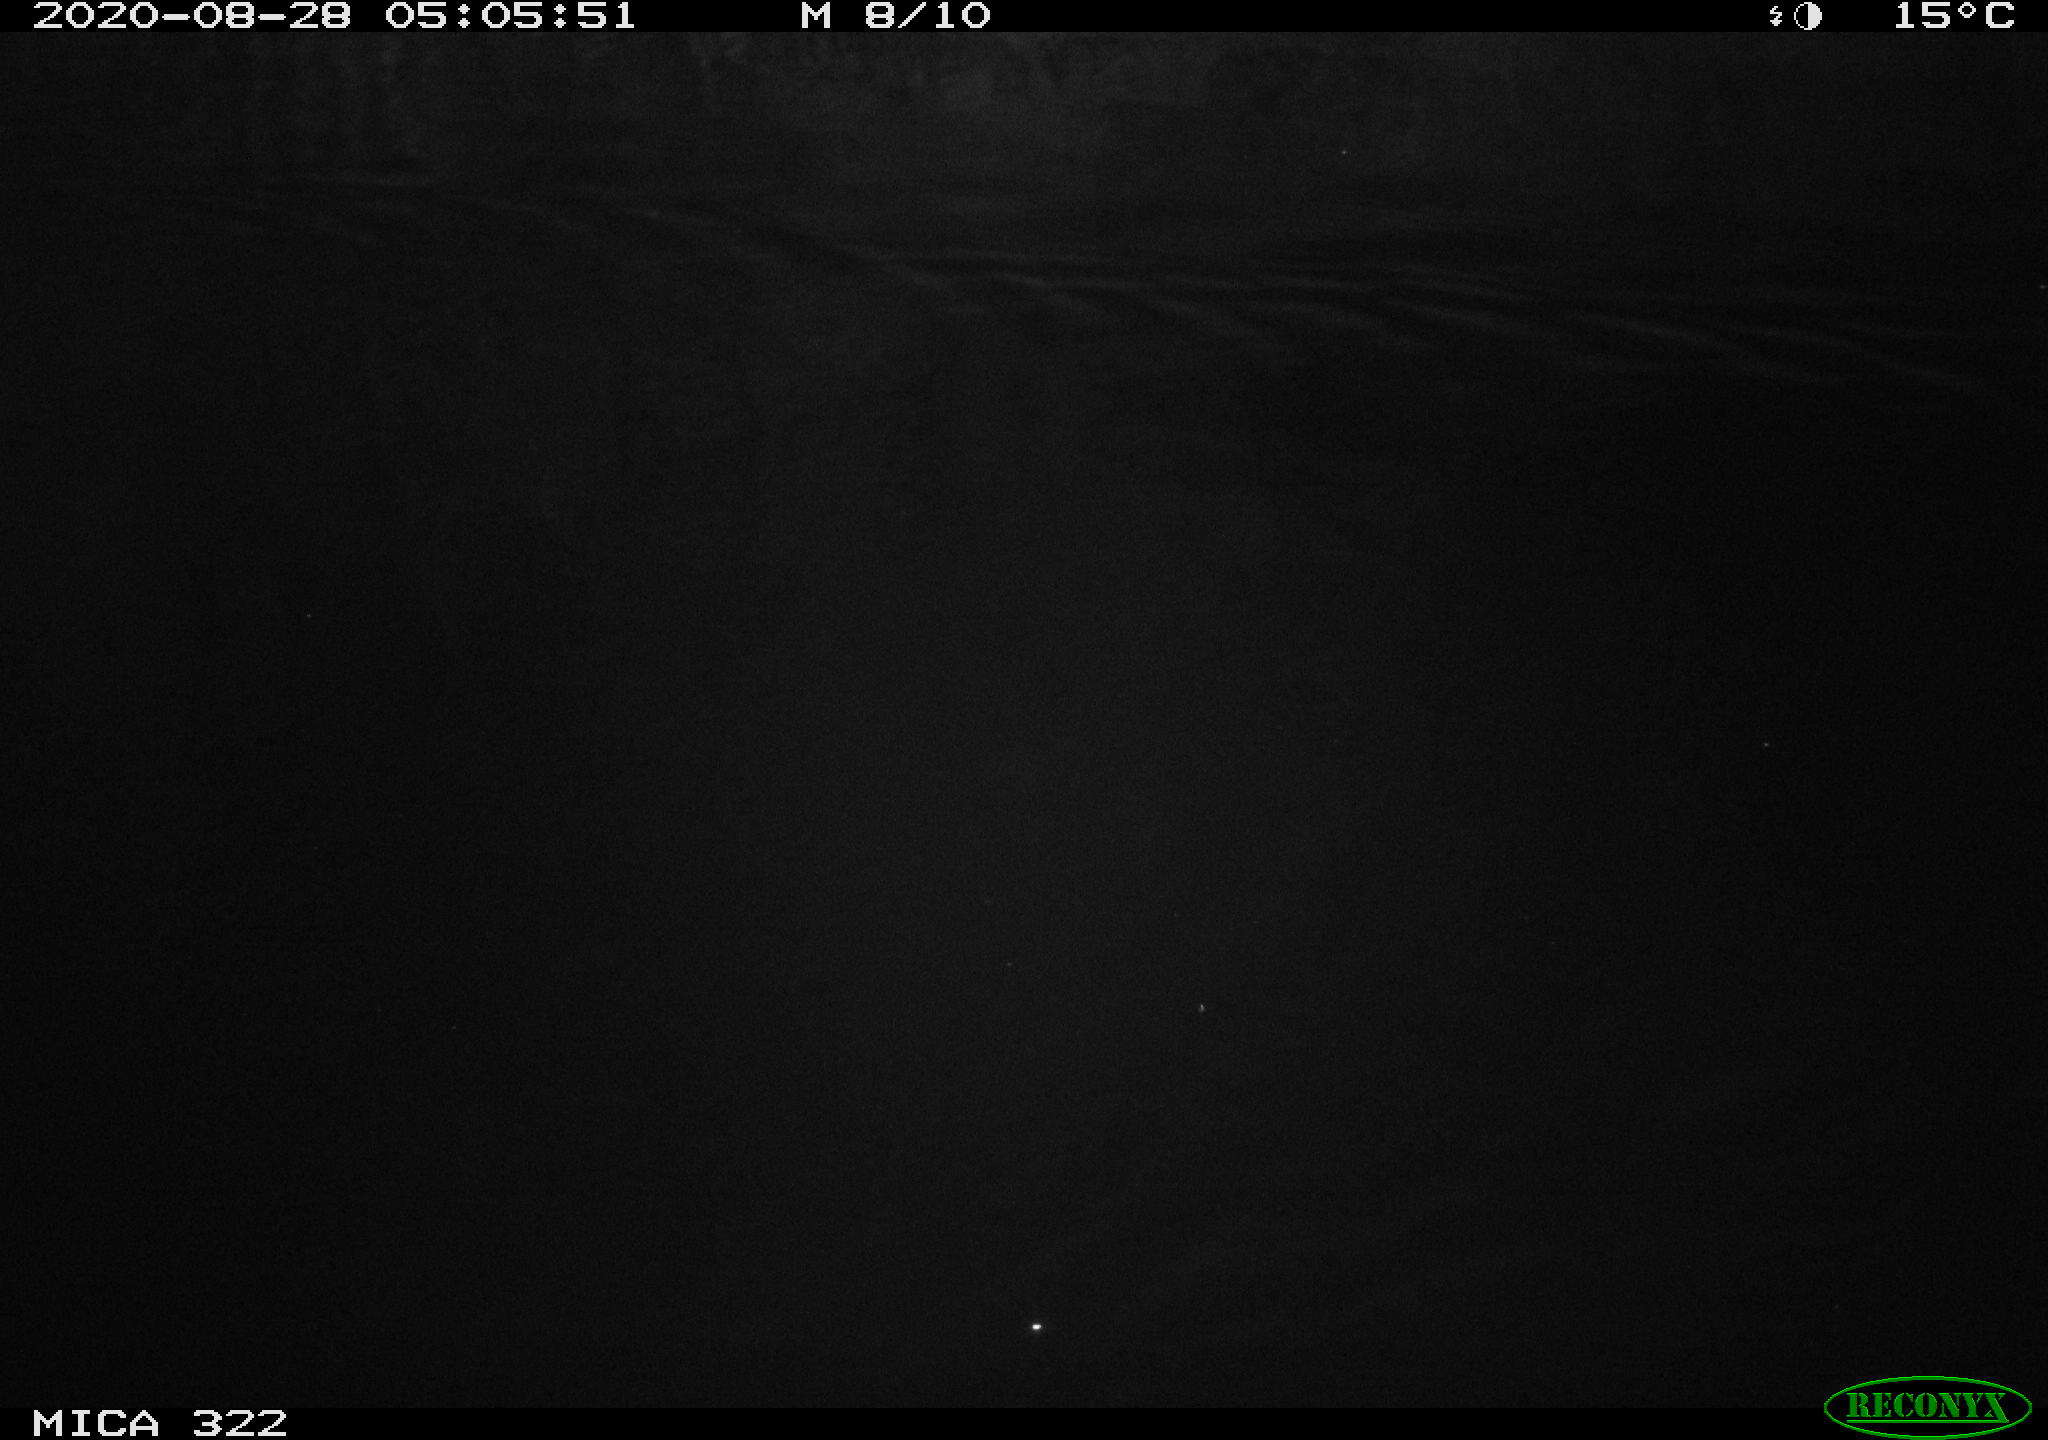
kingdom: Animalia
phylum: Chordata
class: Aves
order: Anseriformes
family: Anatidae
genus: Aythya
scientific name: Aythya fuligula
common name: Tufted duck
